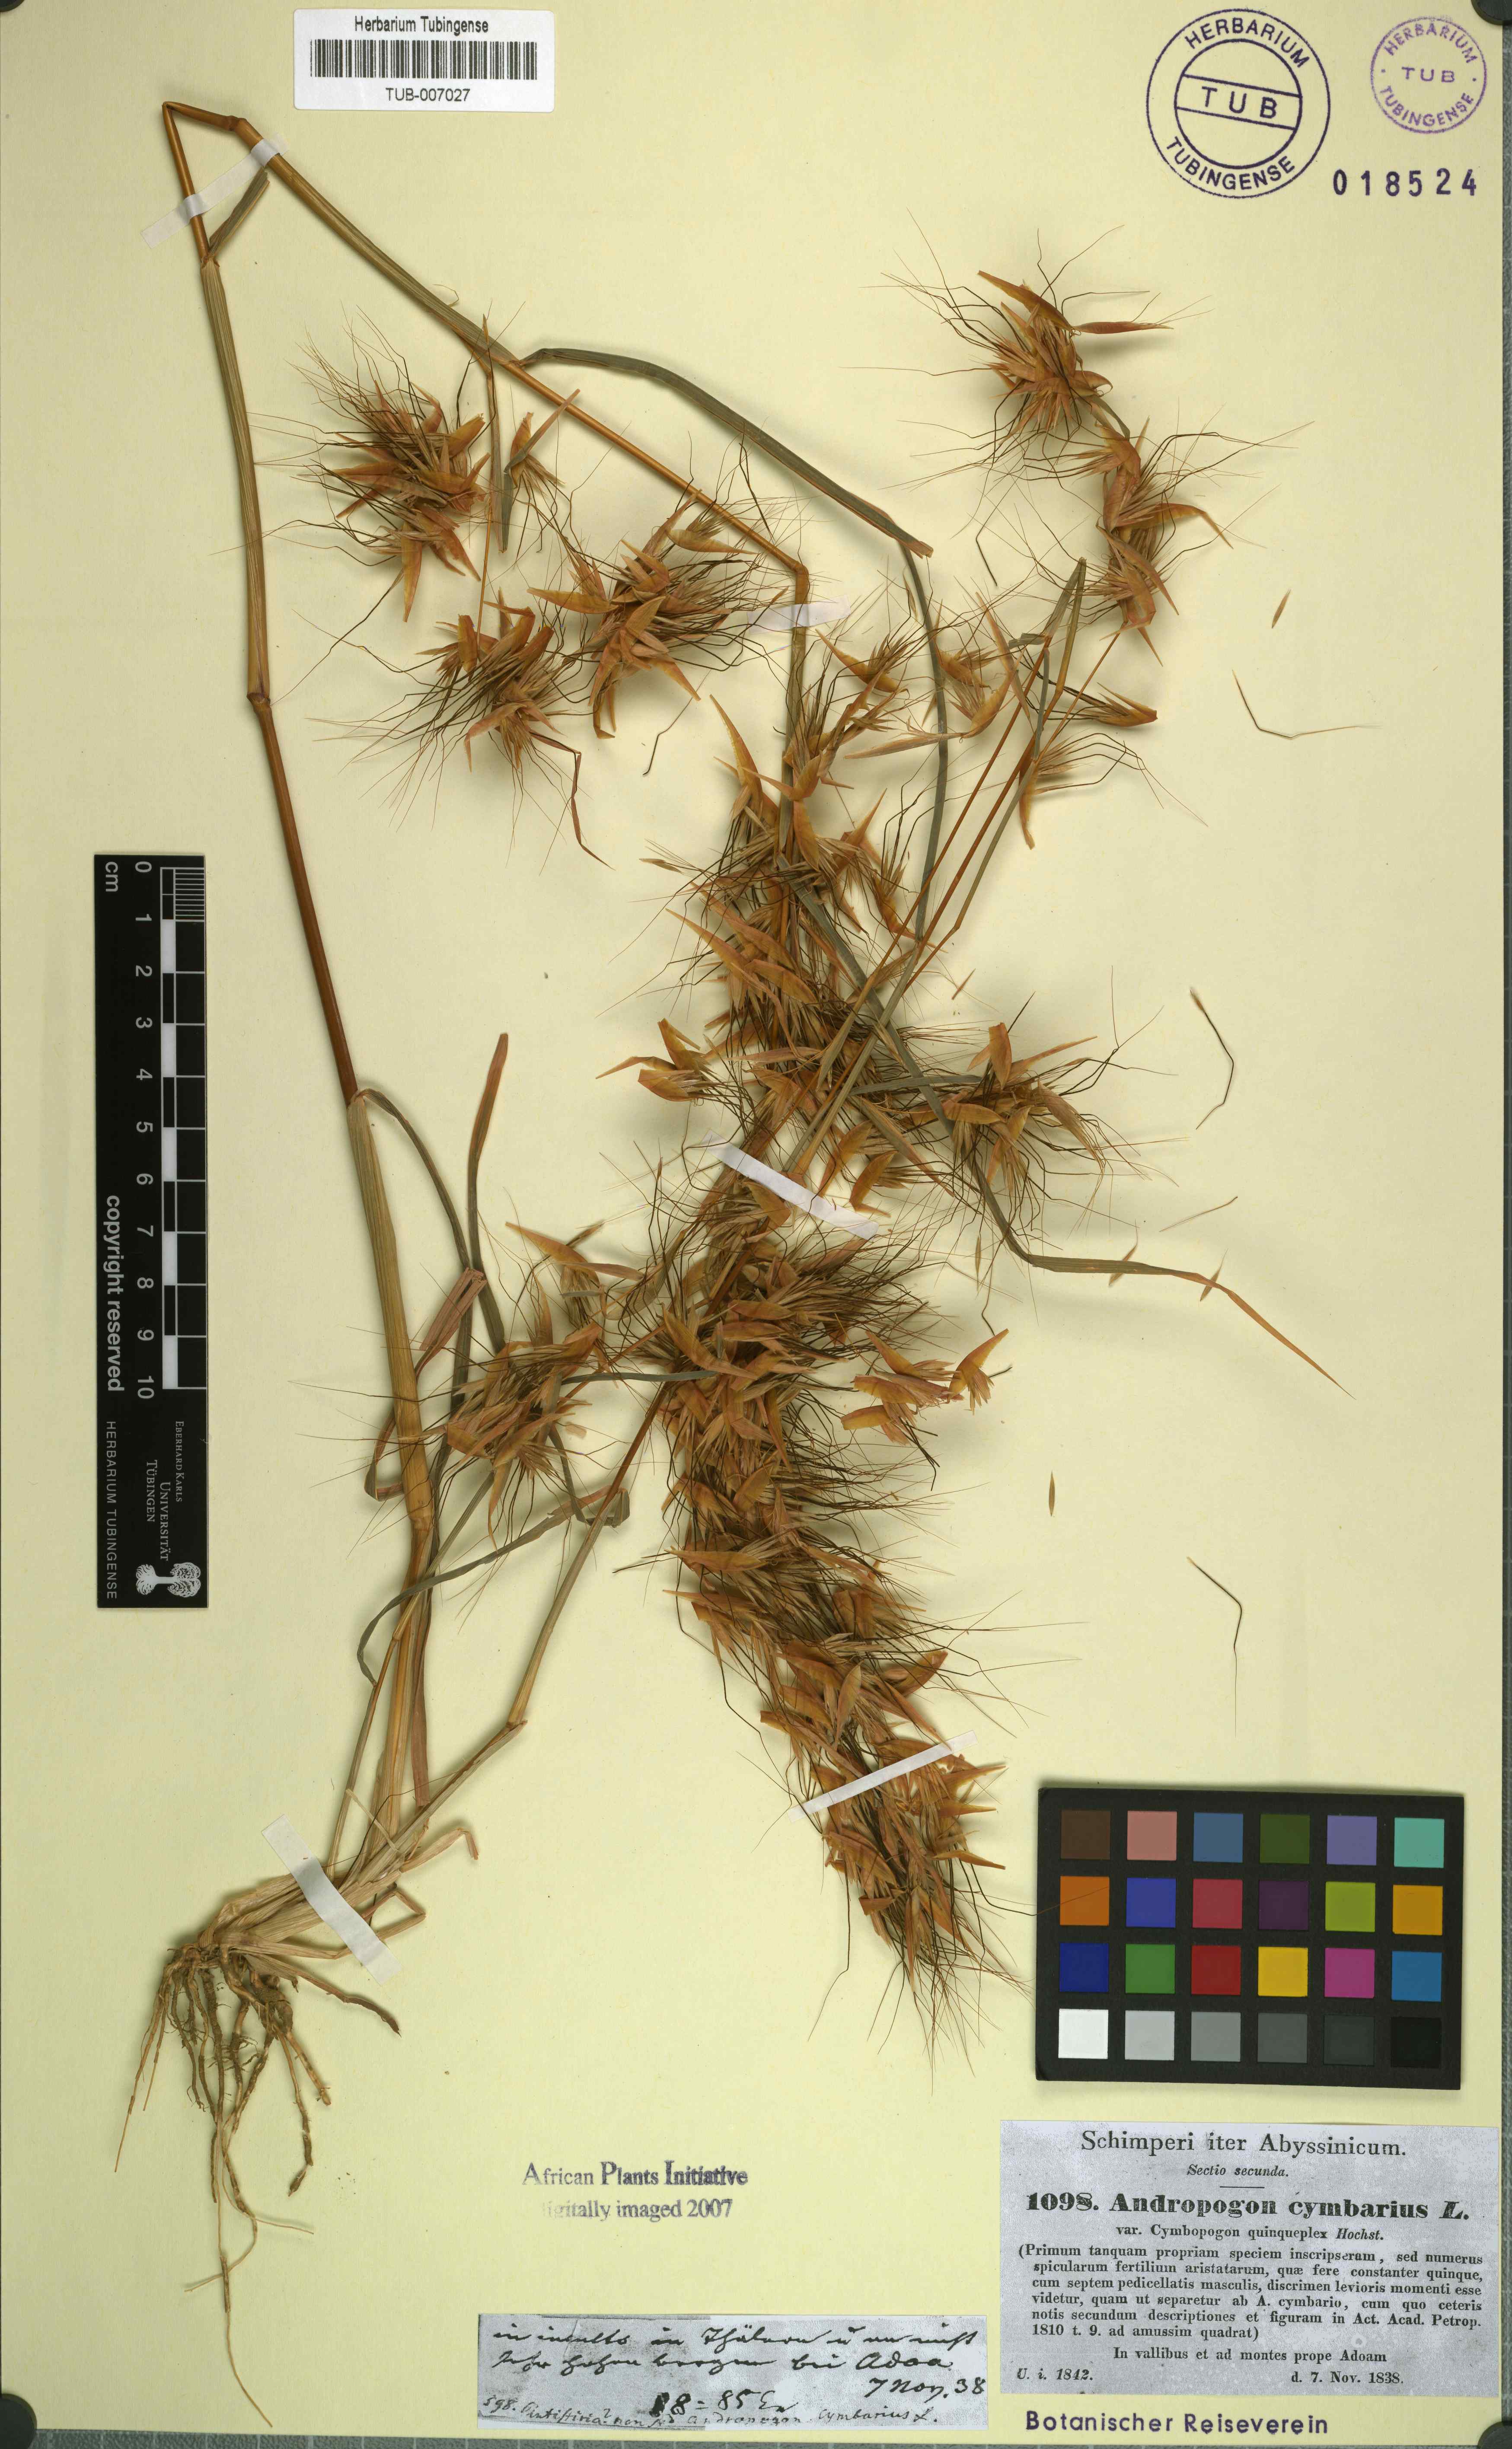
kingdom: Plantae
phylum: Tracheophyta
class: Liliopsida
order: Poales
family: Poaceae
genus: Hyparrhenia
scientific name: Hyparrhenia cymbaria
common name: Boat thatching grass
